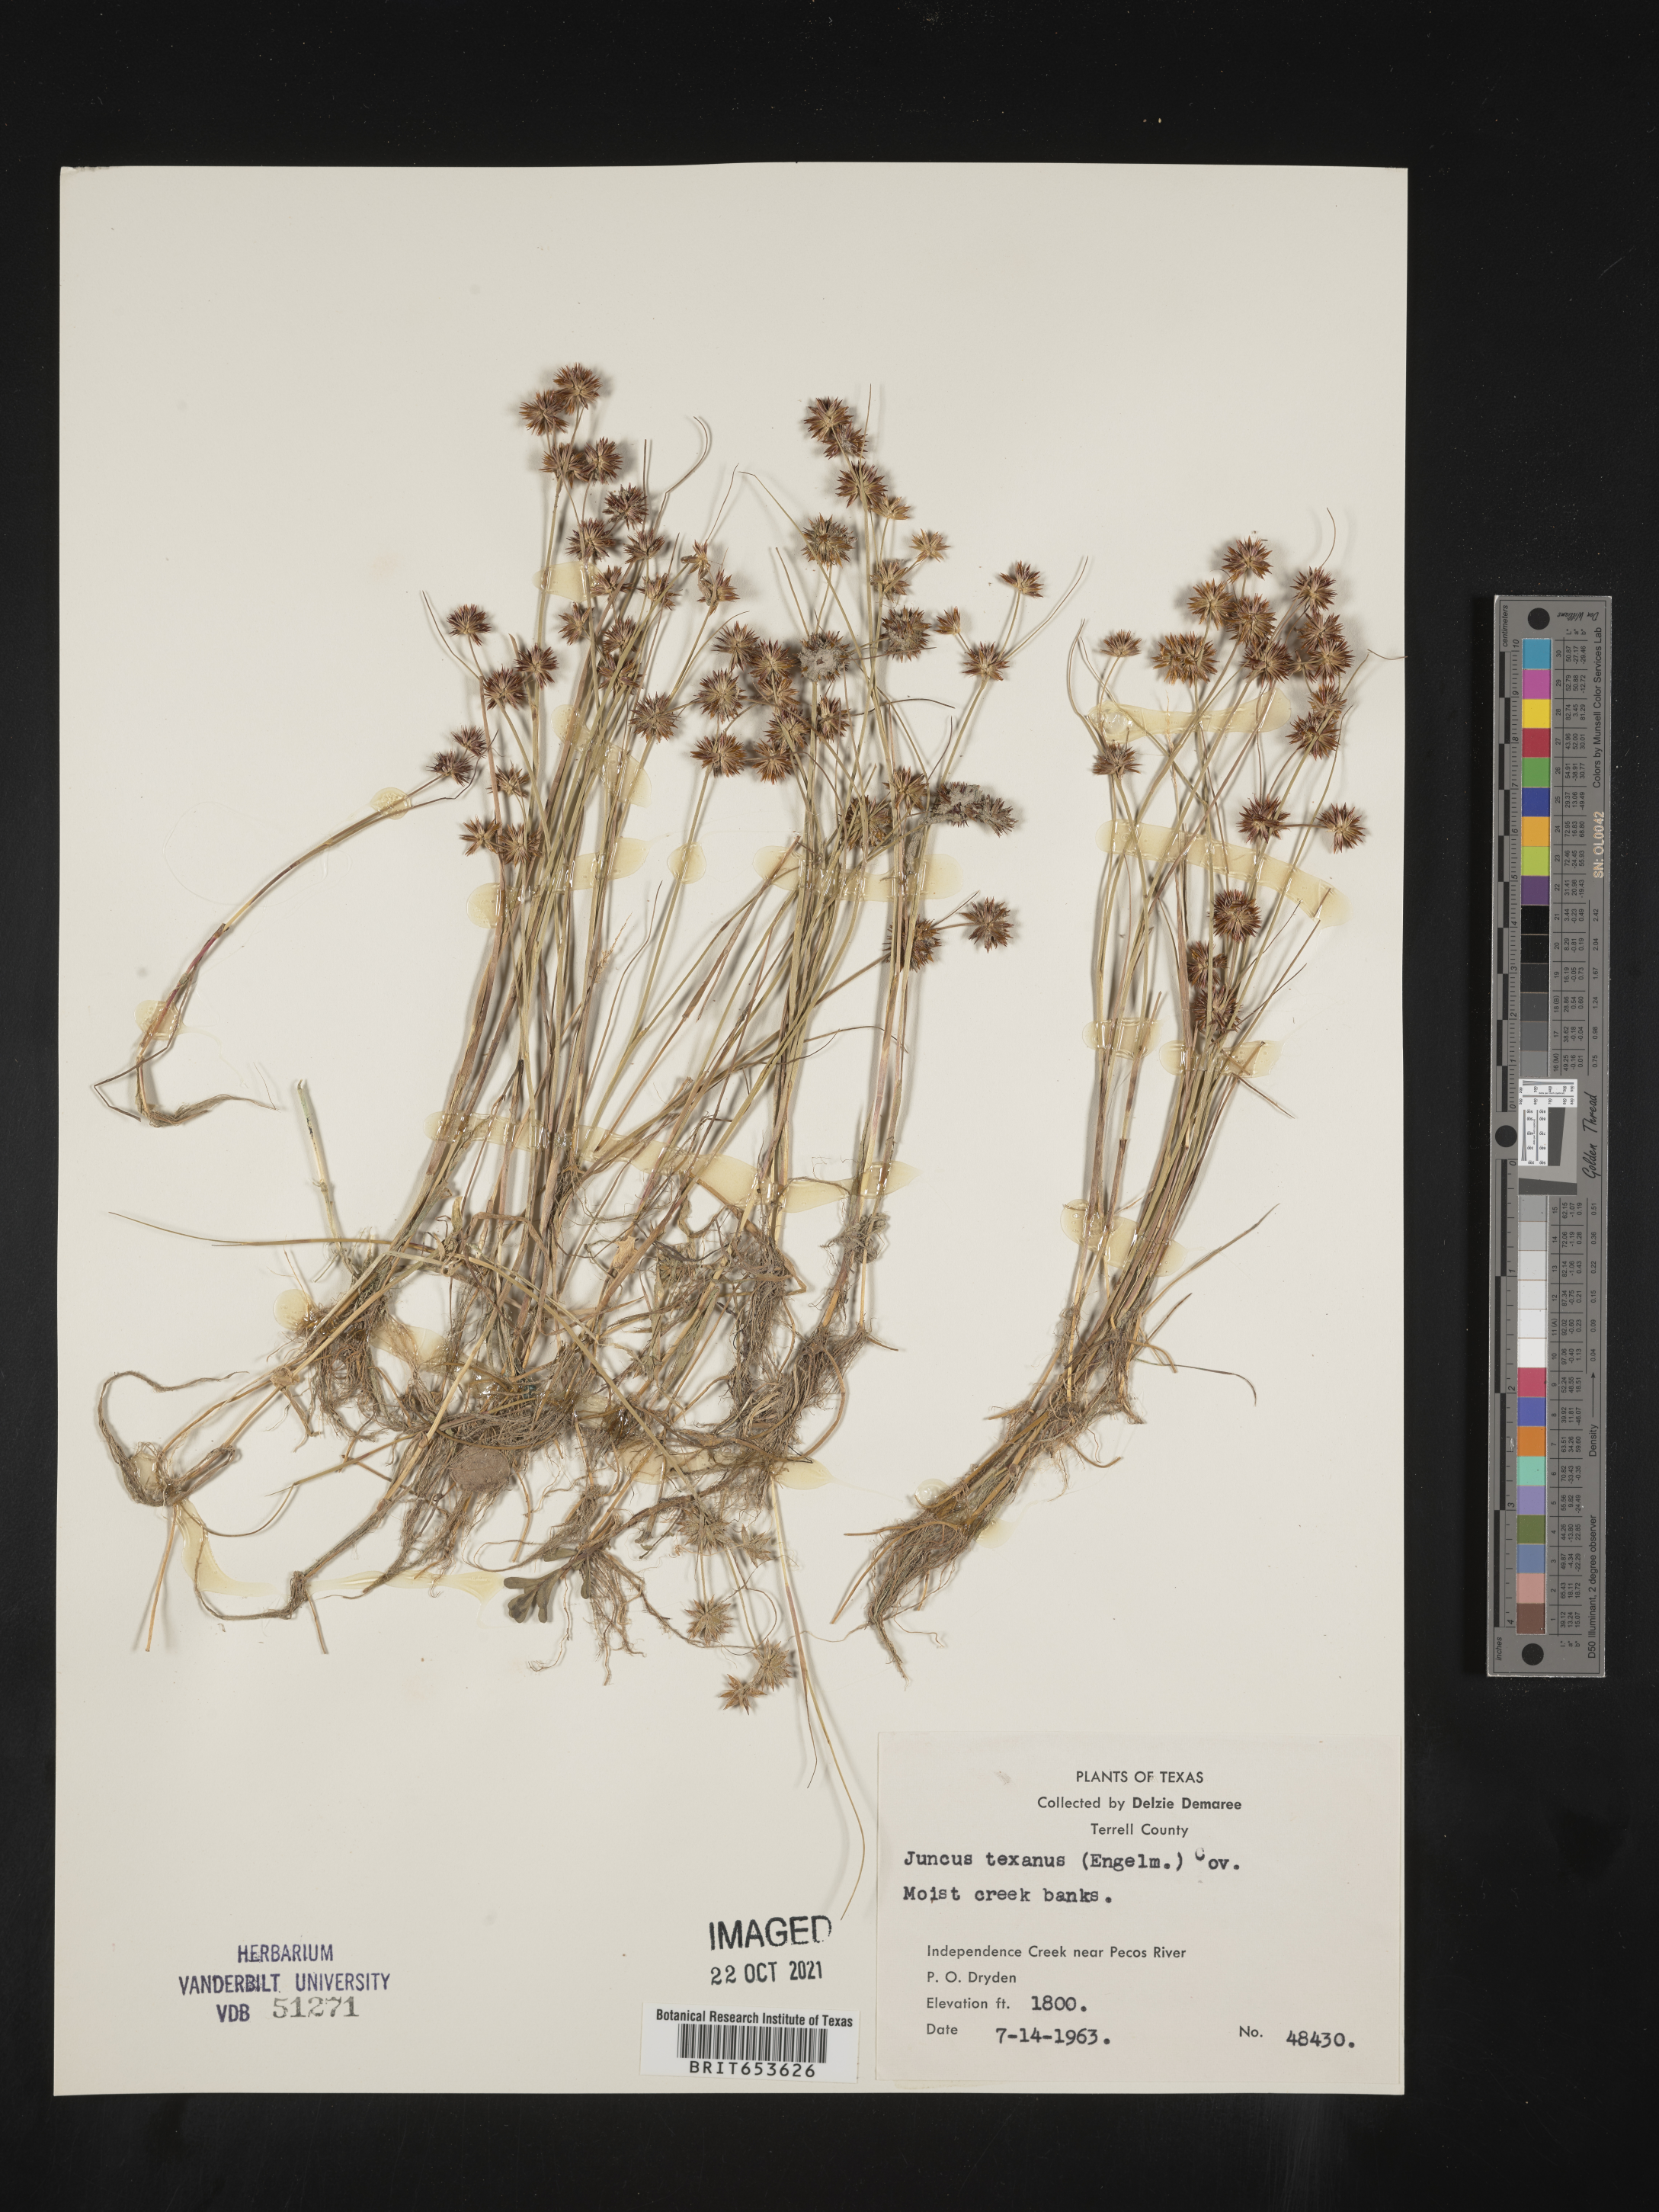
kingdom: Plantae
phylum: Tracheophyta
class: Liliopsida
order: Poales
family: Juncaceae
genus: Juncus
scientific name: Juncus texanus
